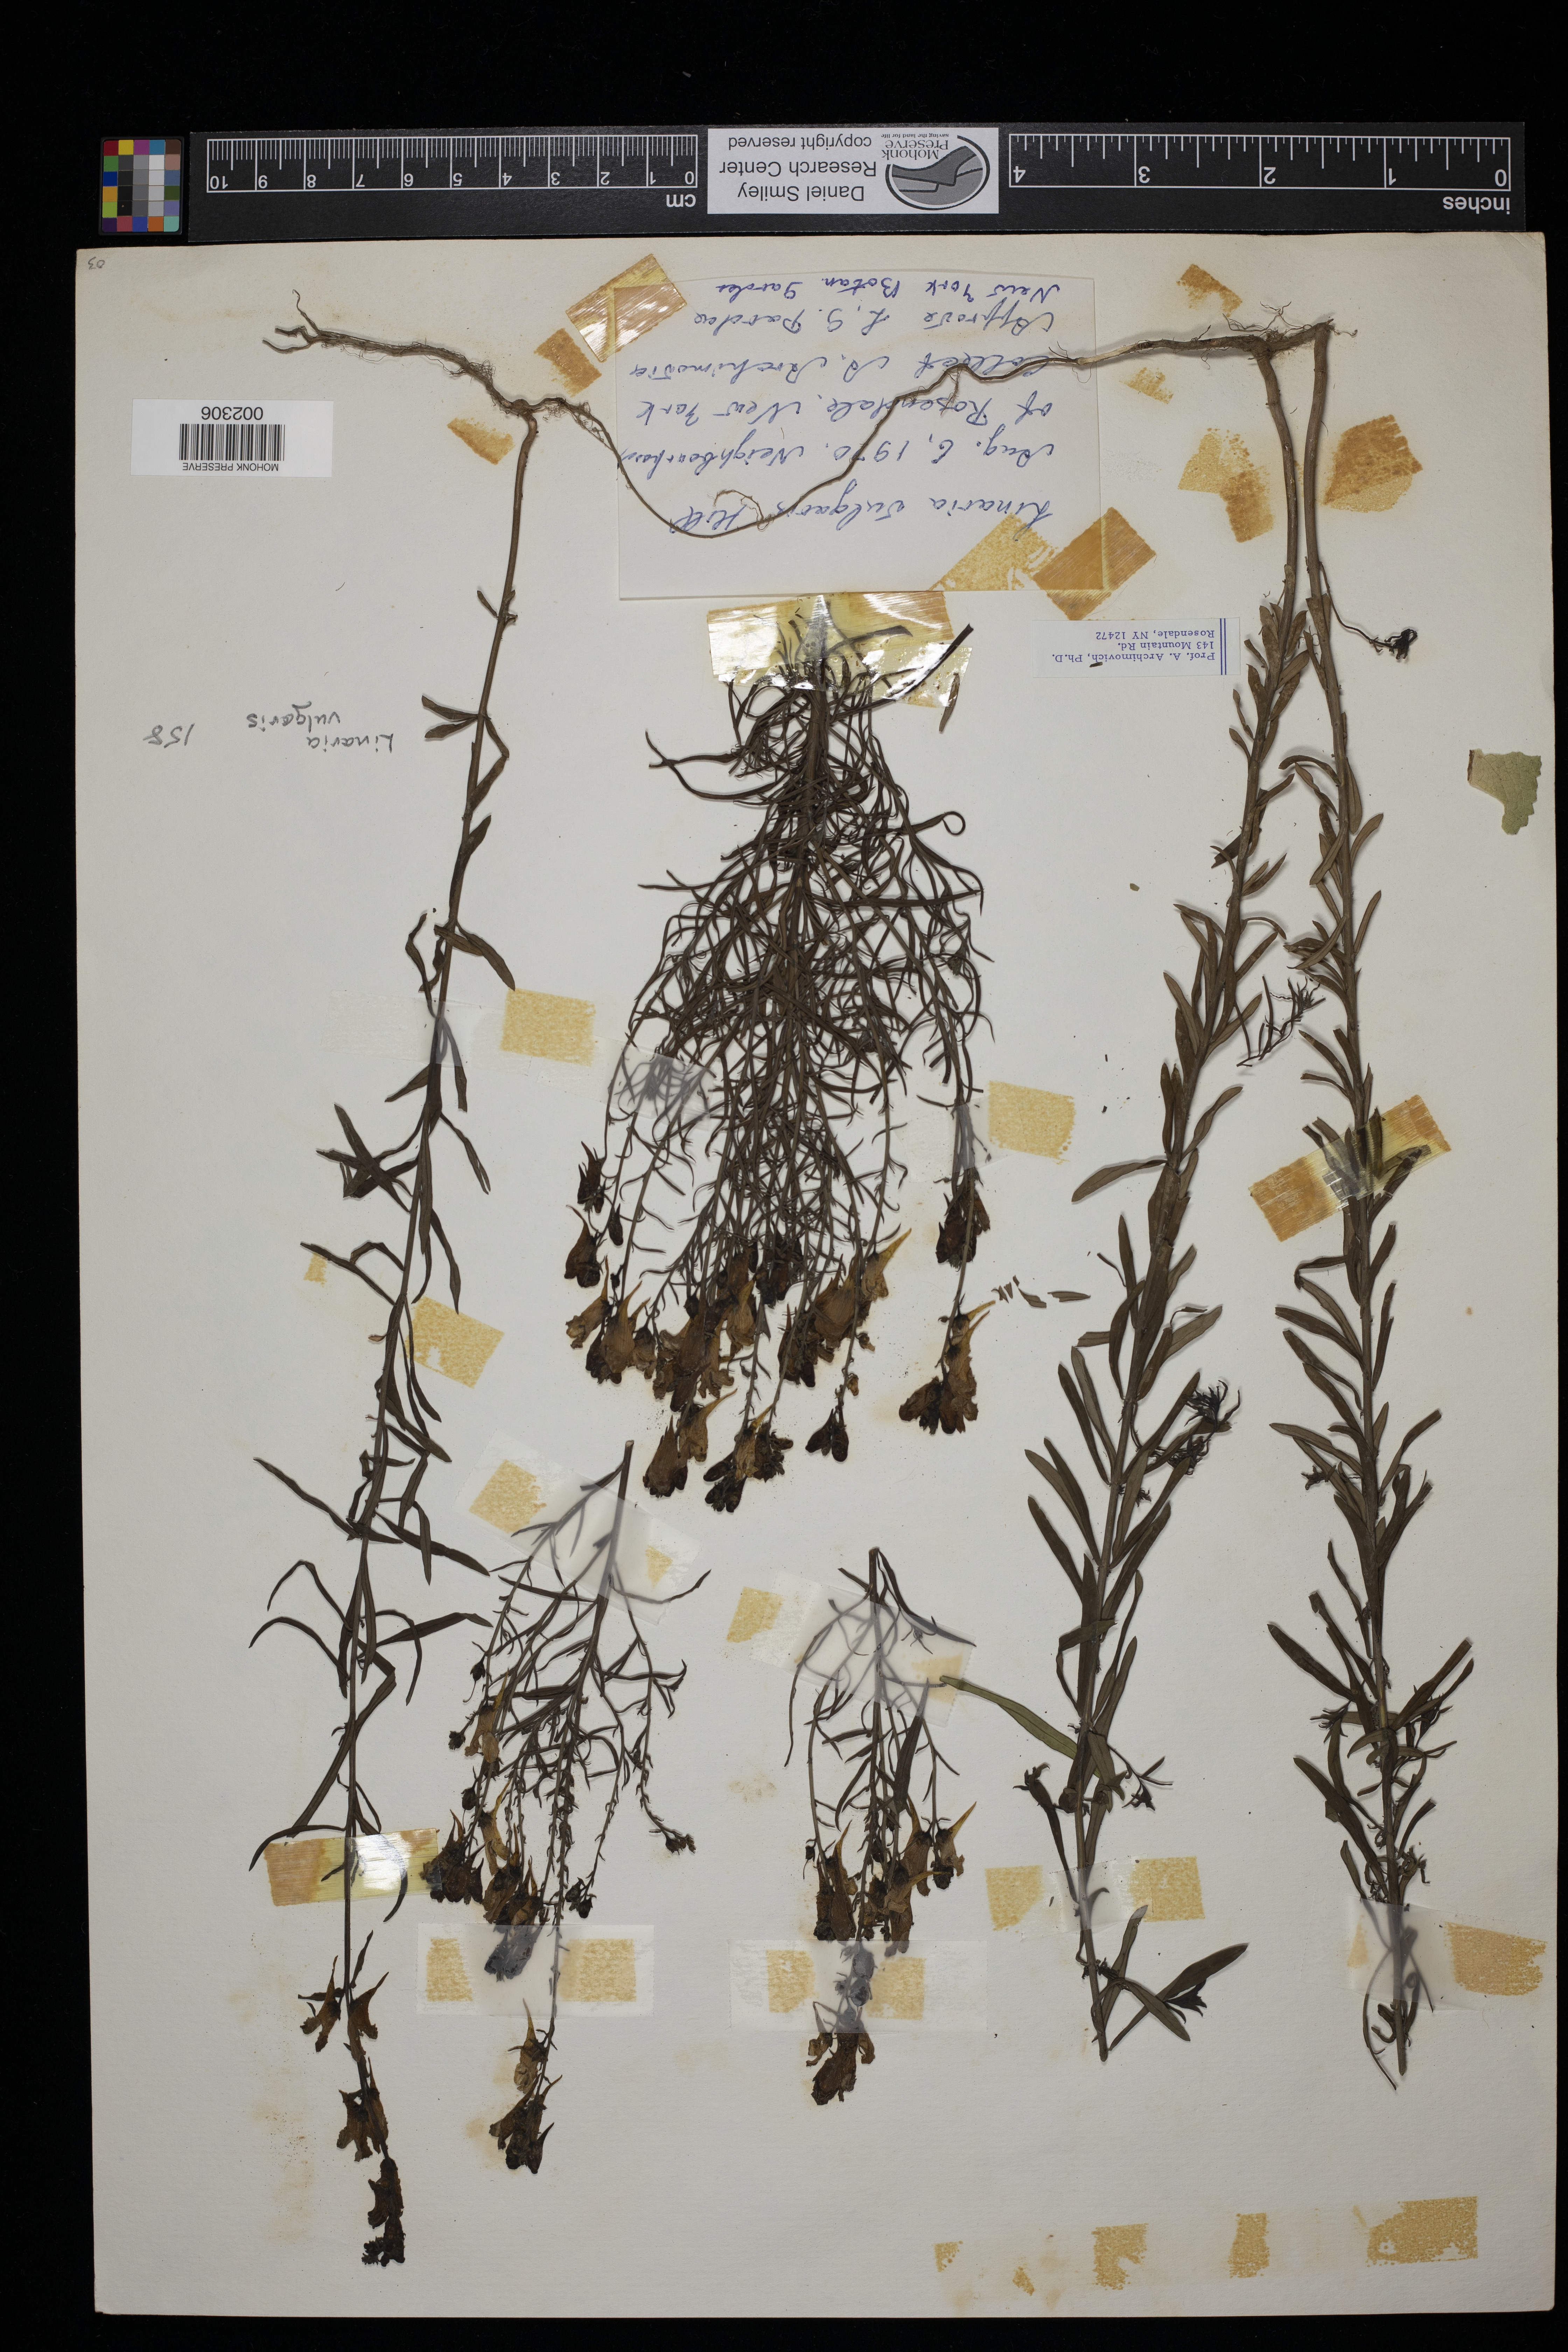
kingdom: Plantae
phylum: Tracheophyta
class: Magnoliopsida
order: Lamiales
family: Plantaginaceae
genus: Linaria
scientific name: Linaria vulgaris
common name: Butter and eggs
